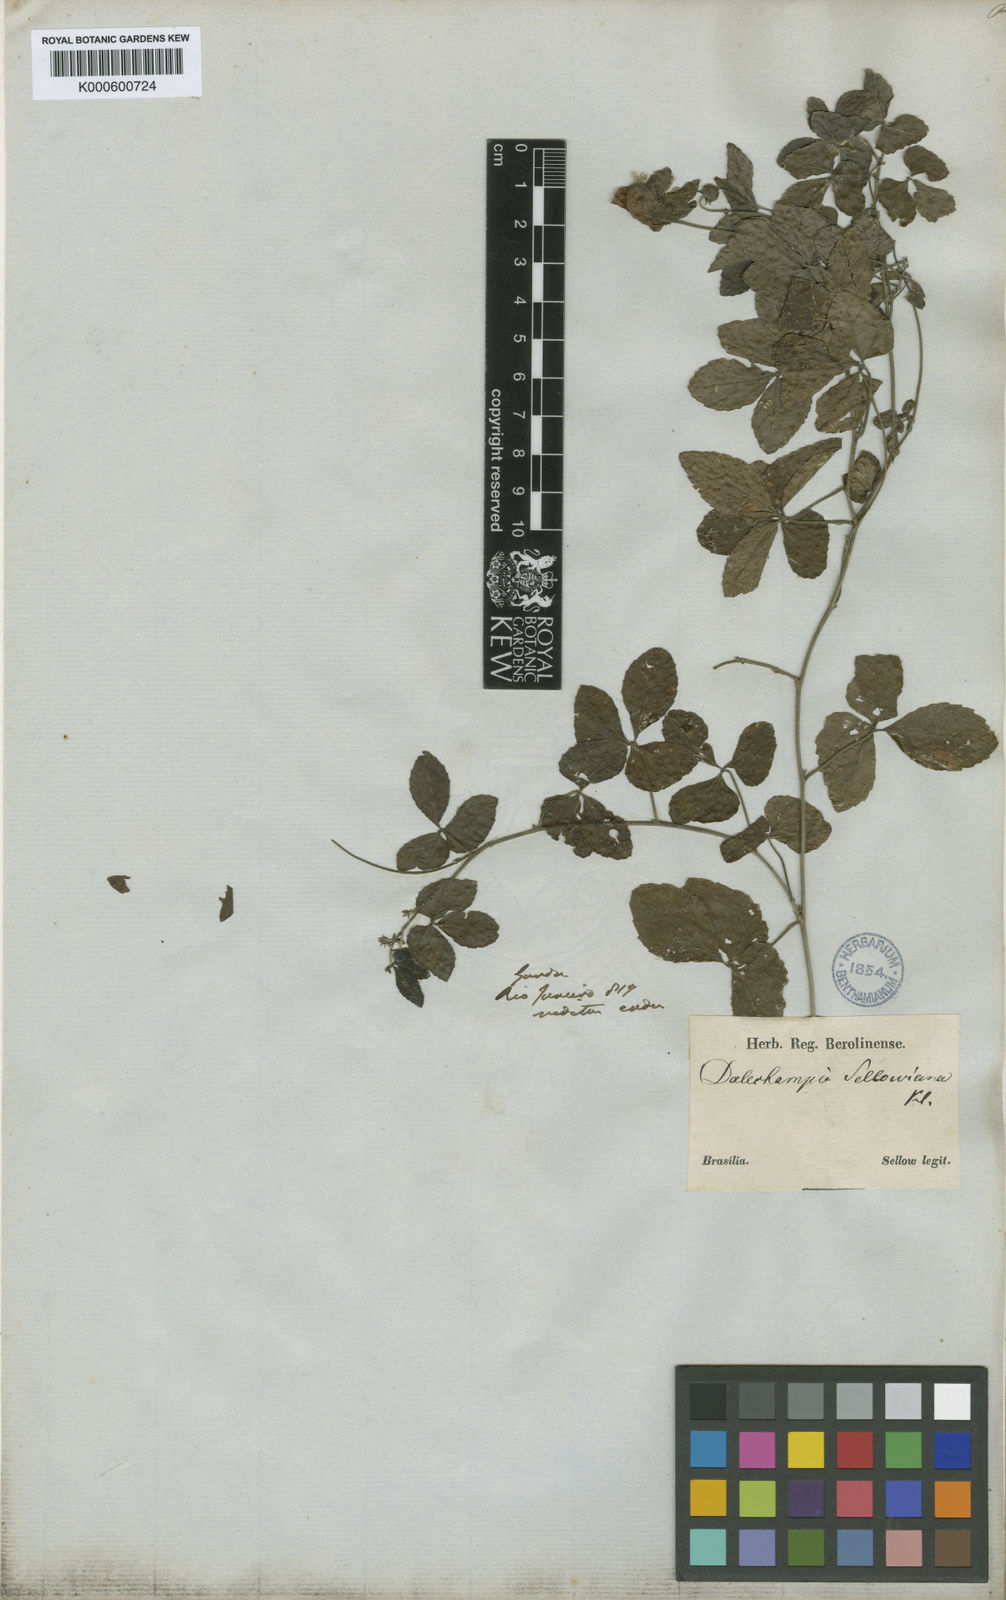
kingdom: Plantae
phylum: Tracheophyta
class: Magnoliopsida
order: Malpighiales
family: Euphorbiaceae
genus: Dalechampia
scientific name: Dalechampia
